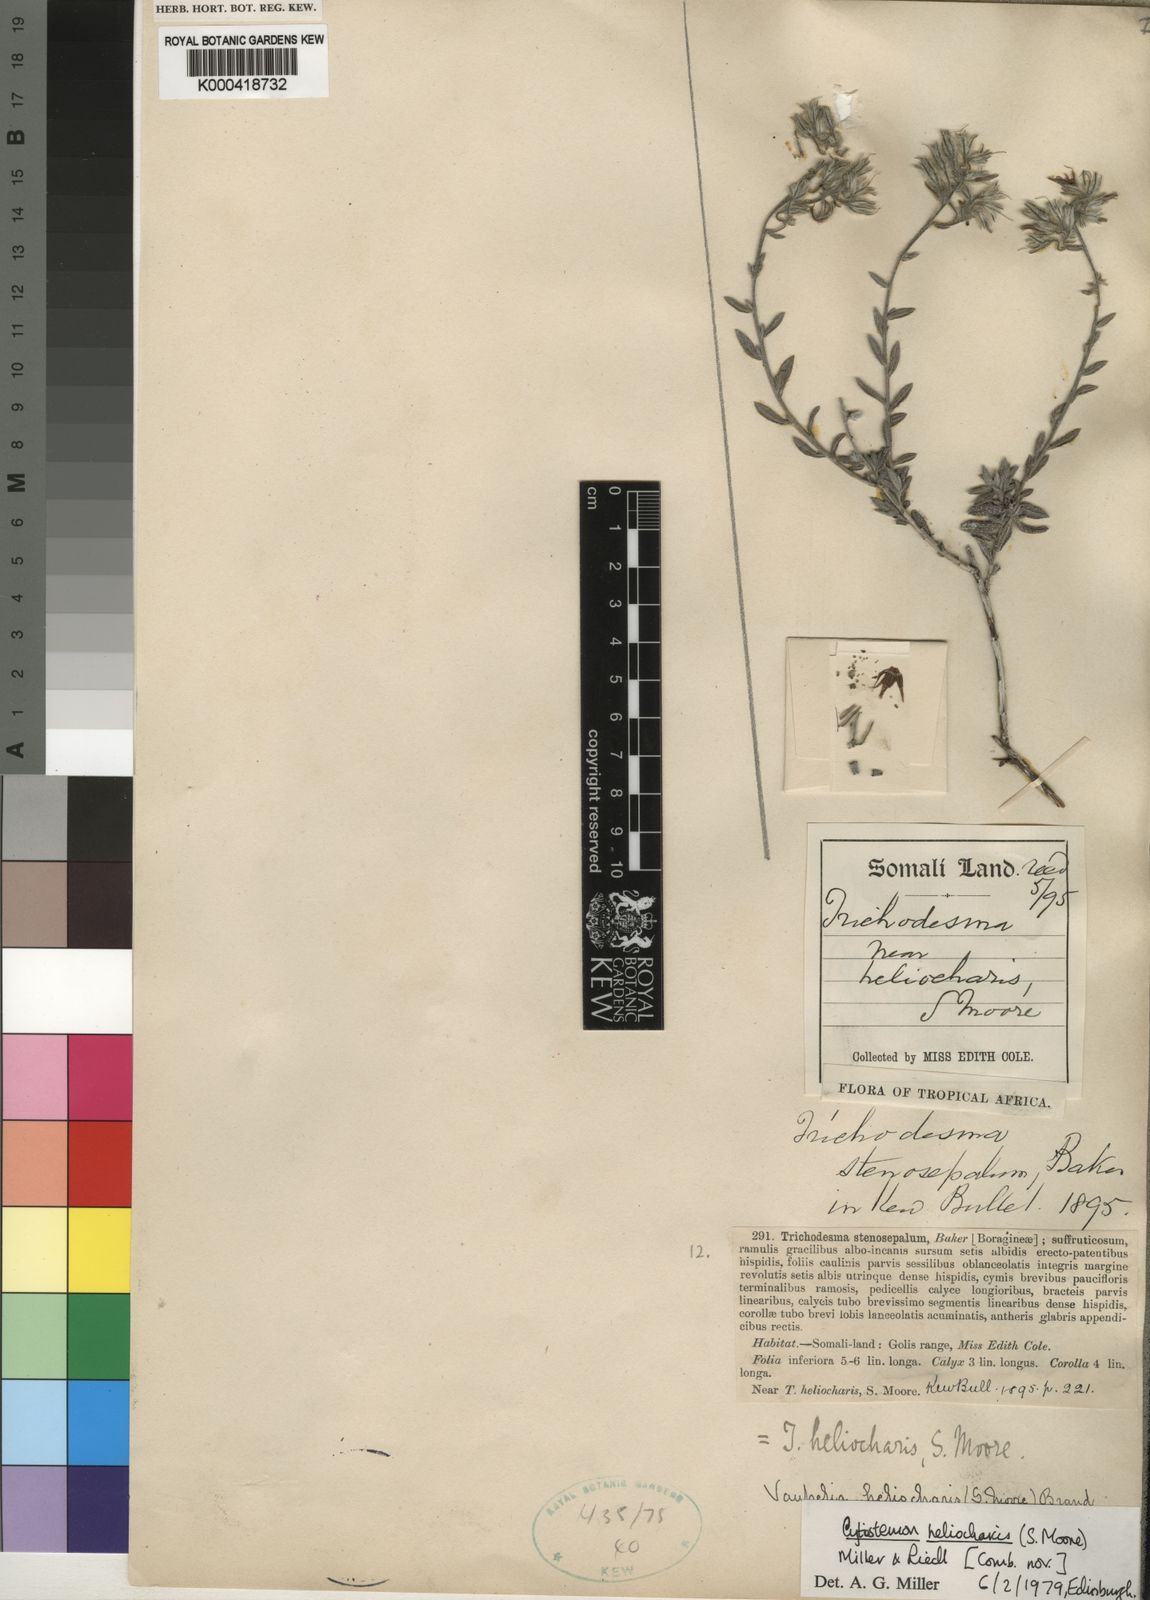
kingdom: Plantae
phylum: Tracheophyta
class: Magnoliopsida
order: Boraginales
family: Boraginaceae
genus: Cystostemon
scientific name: Cystostemon heliocharis
